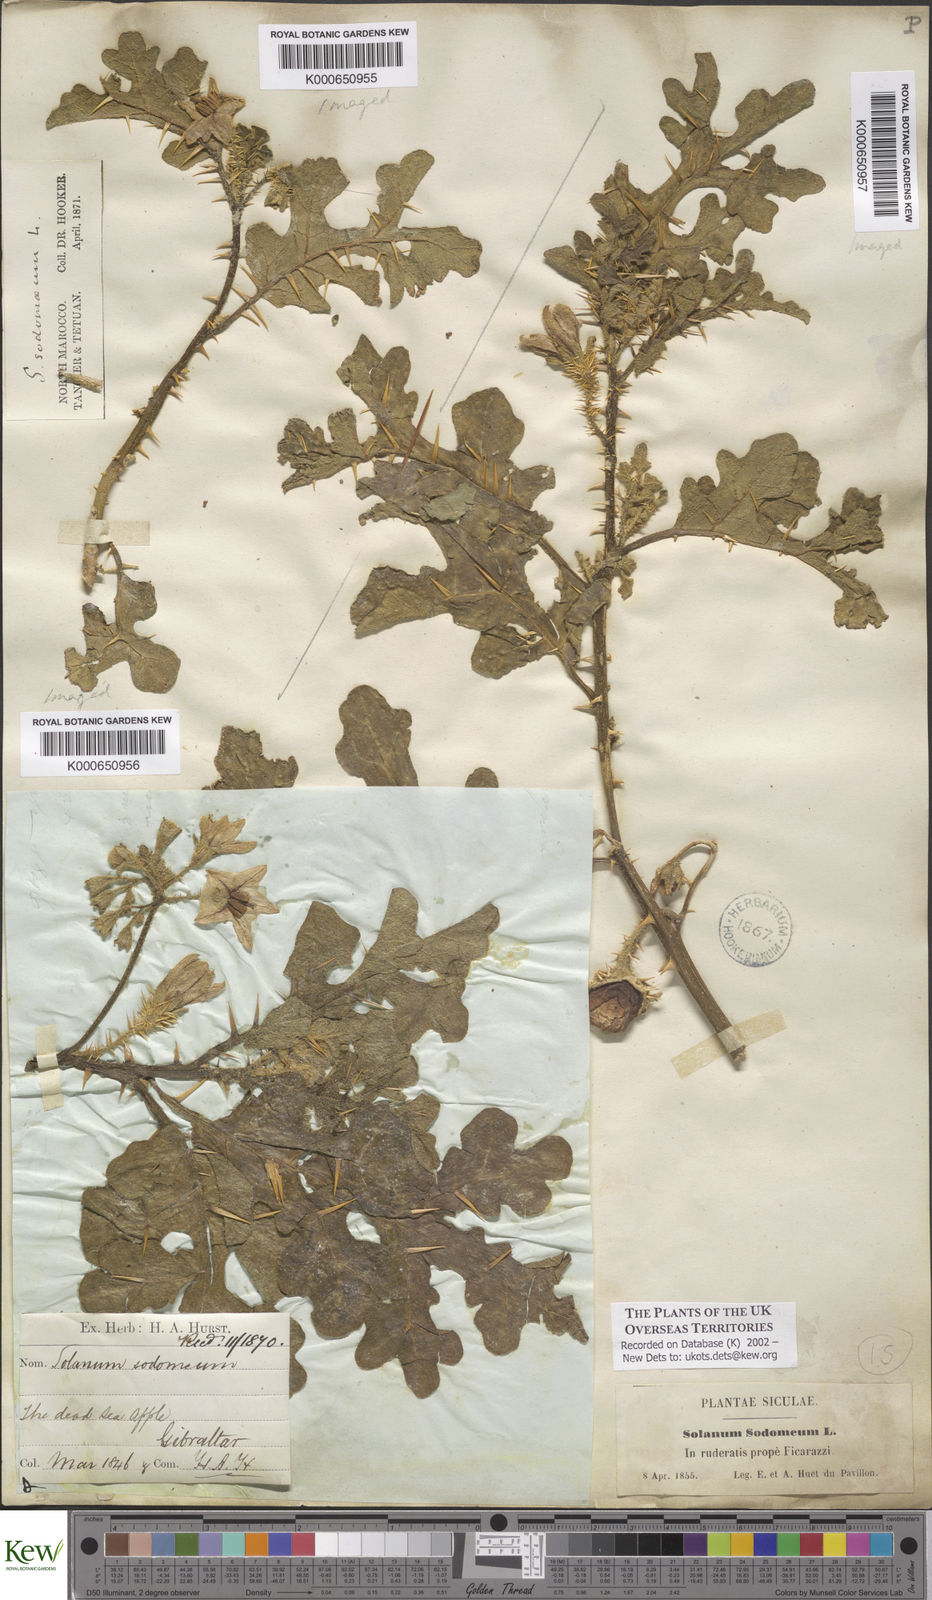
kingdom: Plantae
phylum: Tracheophyta
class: Magnoliopsida
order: Solanales
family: Solanaceae
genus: Solanum
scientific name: Solanum anguivi
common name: Forest bitterberry
